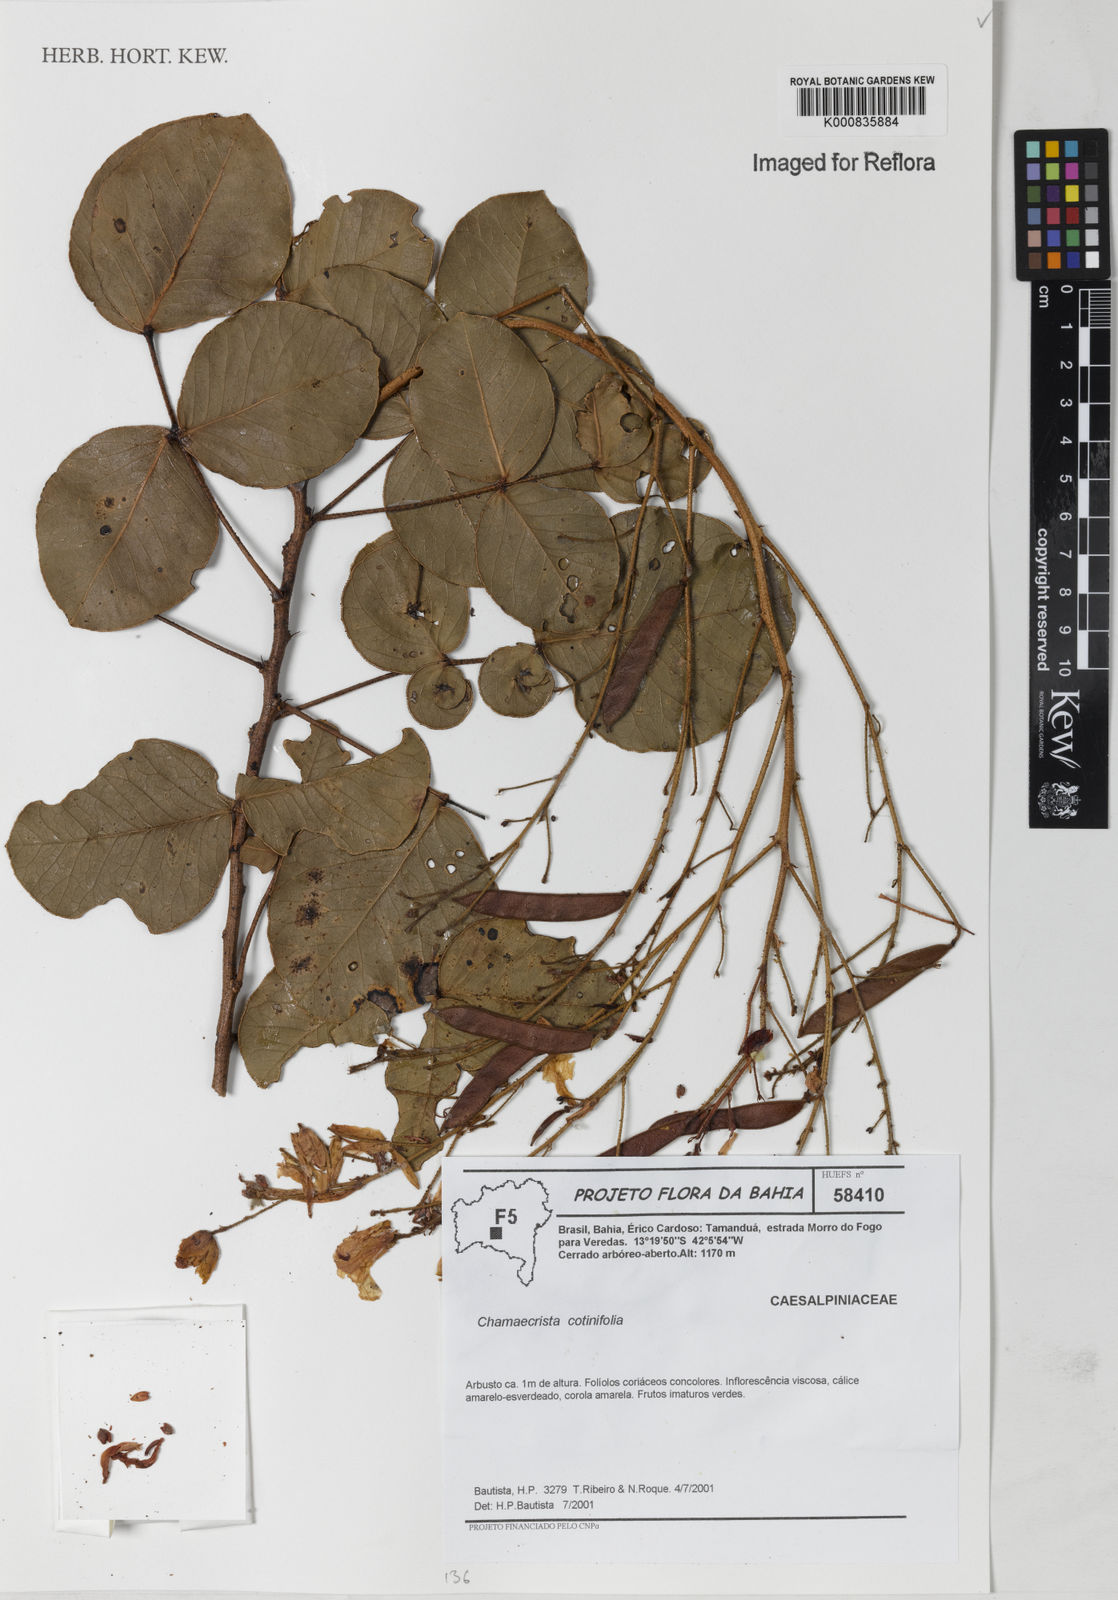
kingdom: Plantae
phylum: Tracheophyta
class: Magnoliopsida
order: Fabales
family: Fabaceae
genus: Chamaecrista
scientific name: Chamaecrista cotinifolia
